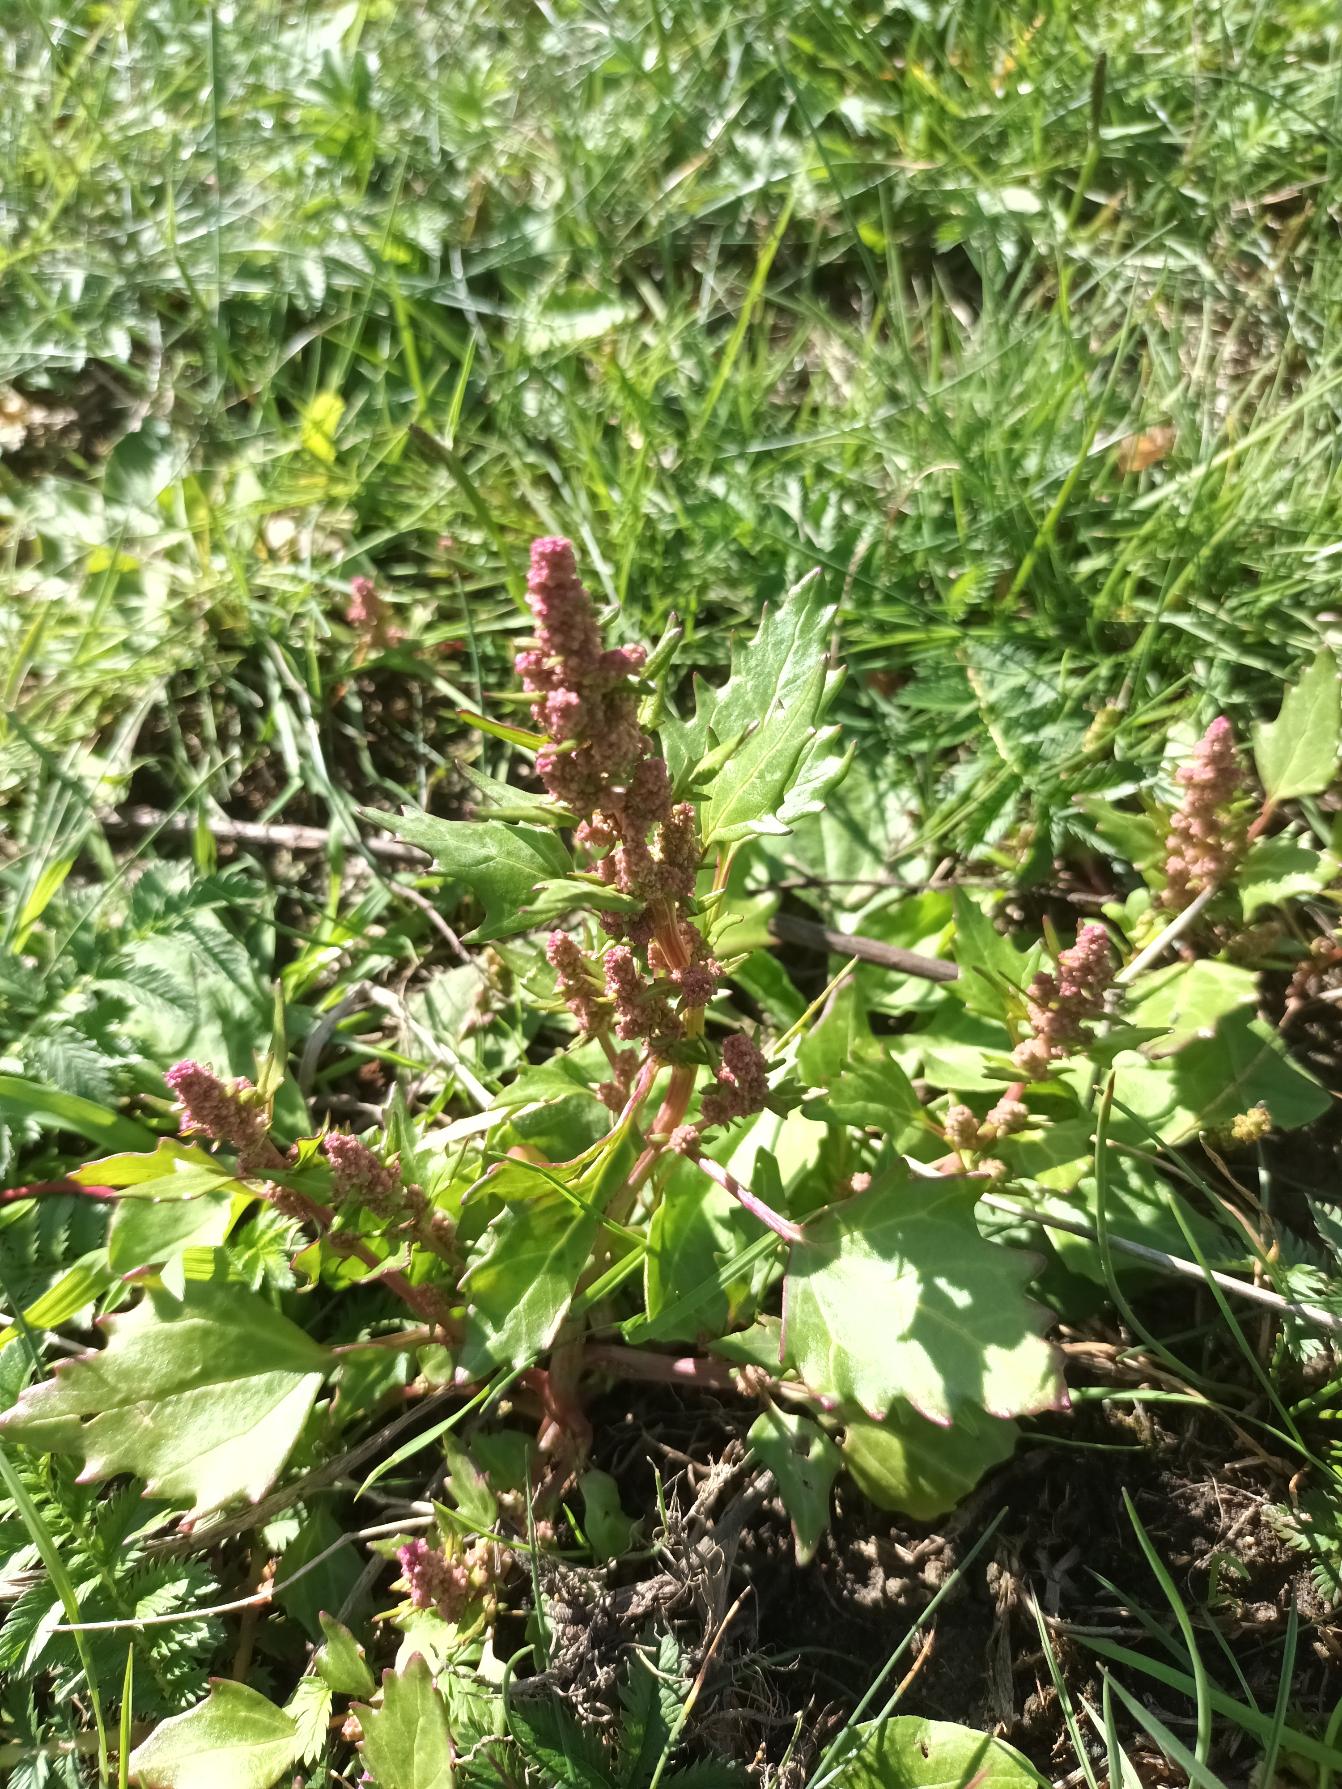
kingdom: Plantae
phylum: Tracheophyta
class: Magnoliopsida
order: Caryophyllales
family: Amaranthaceae
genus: Oxybasis
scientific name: Oxybasis rubra
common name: Rød gåsefod
